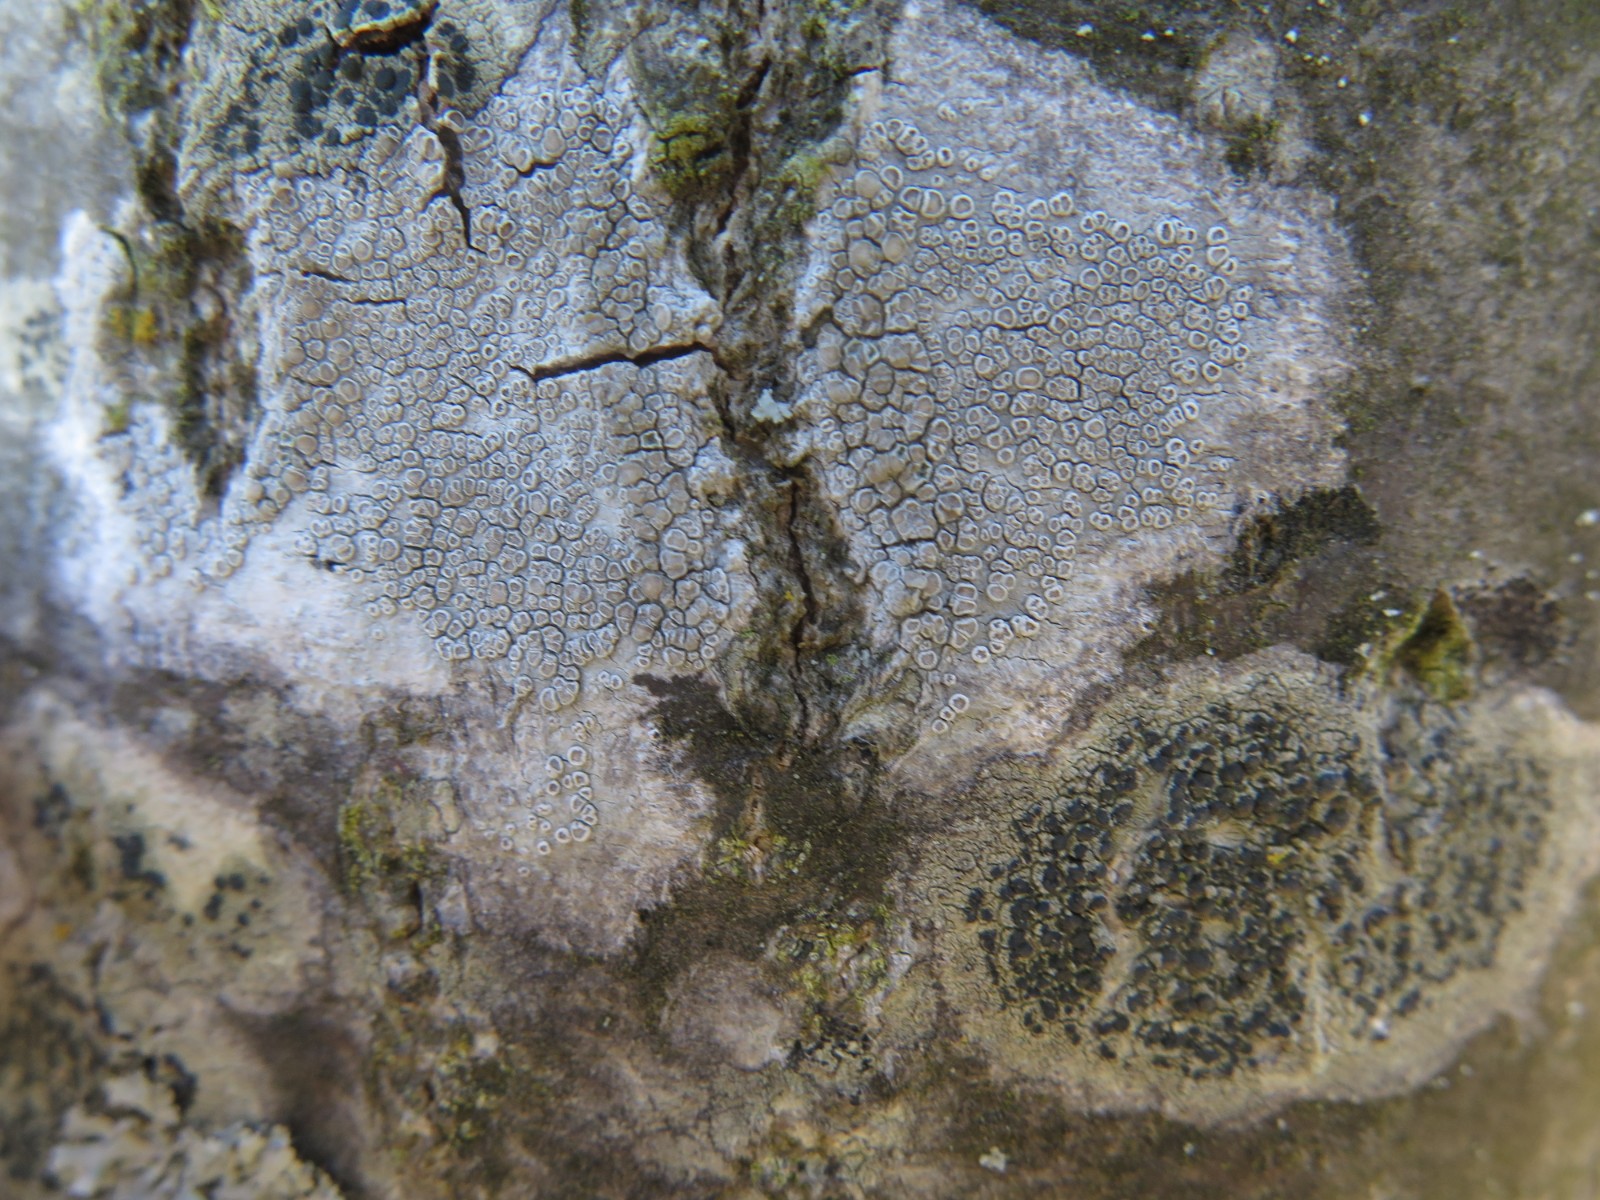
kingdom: Fungi
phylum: Ascomycota
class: Lecanoromycetes
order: Lecanorales
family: Lecanoraceae
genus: Glaucomaria
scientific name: Glaucomaria carpinea
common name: hviddugget kantskivelav
